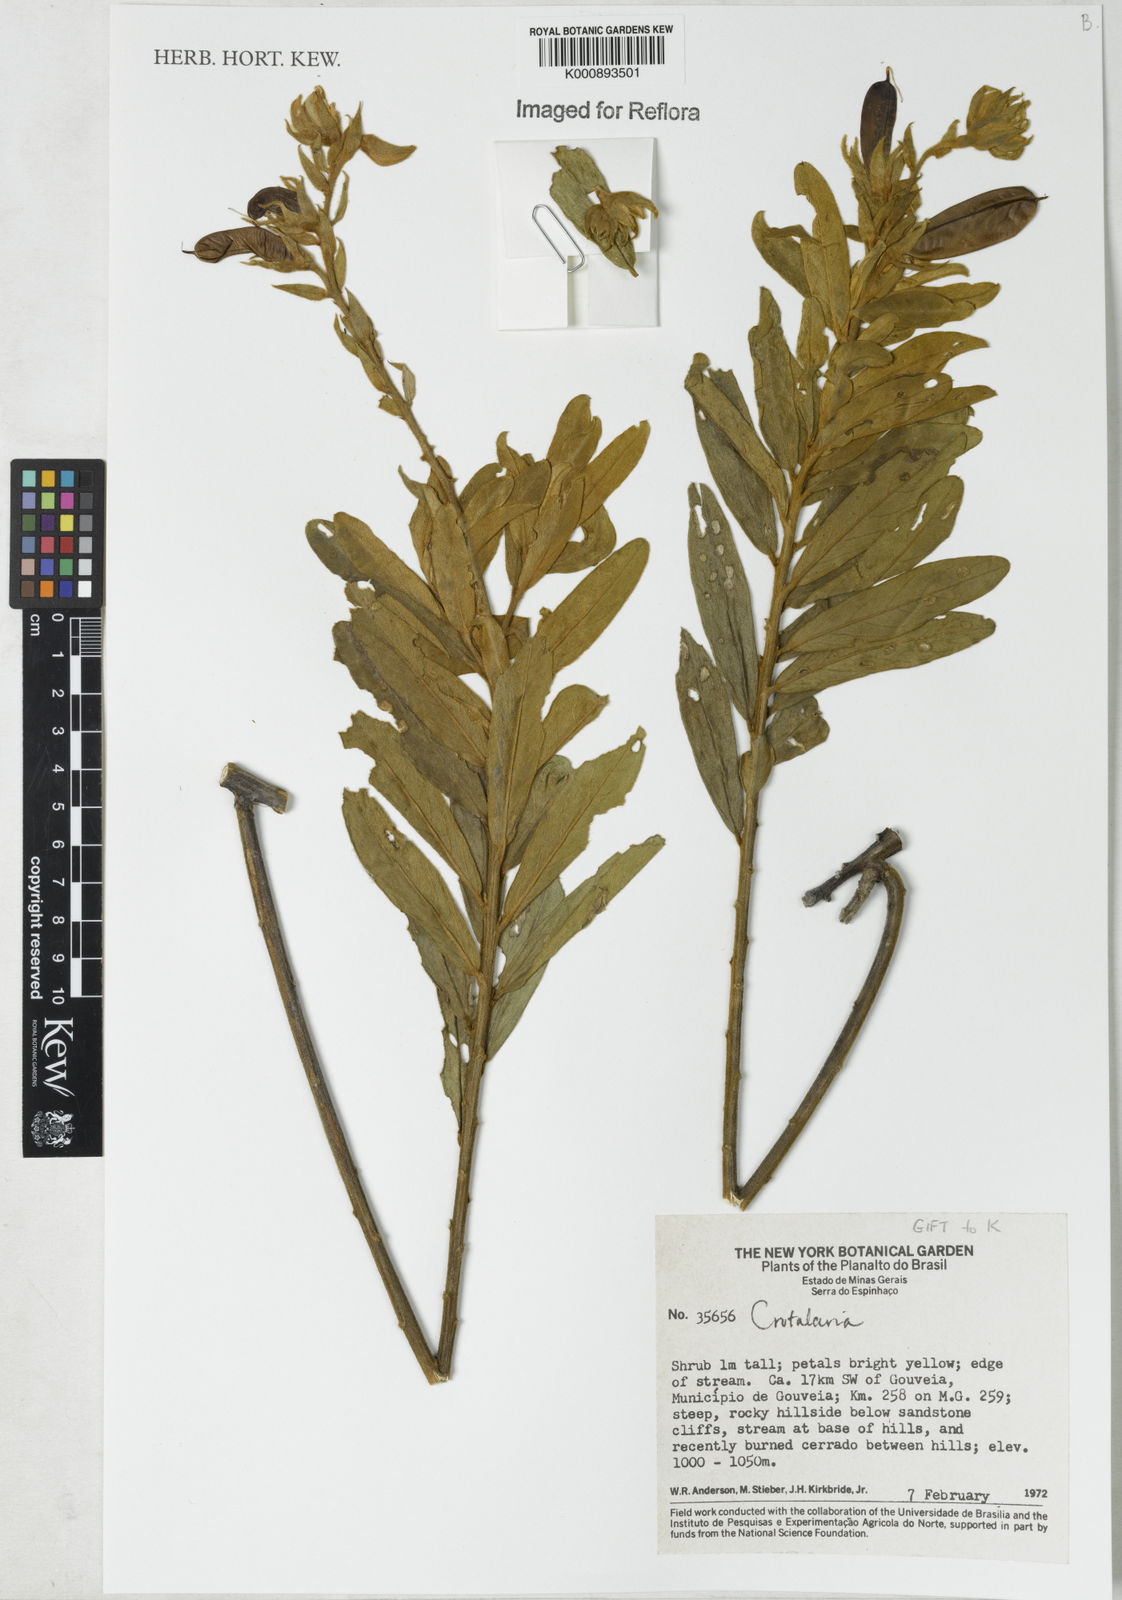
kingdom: Plantae
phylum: Tracheophyta
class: Magnoliopsida
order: Fabales
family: Fabaceae
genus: Crotalaria
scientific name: Crotalaria martiana
